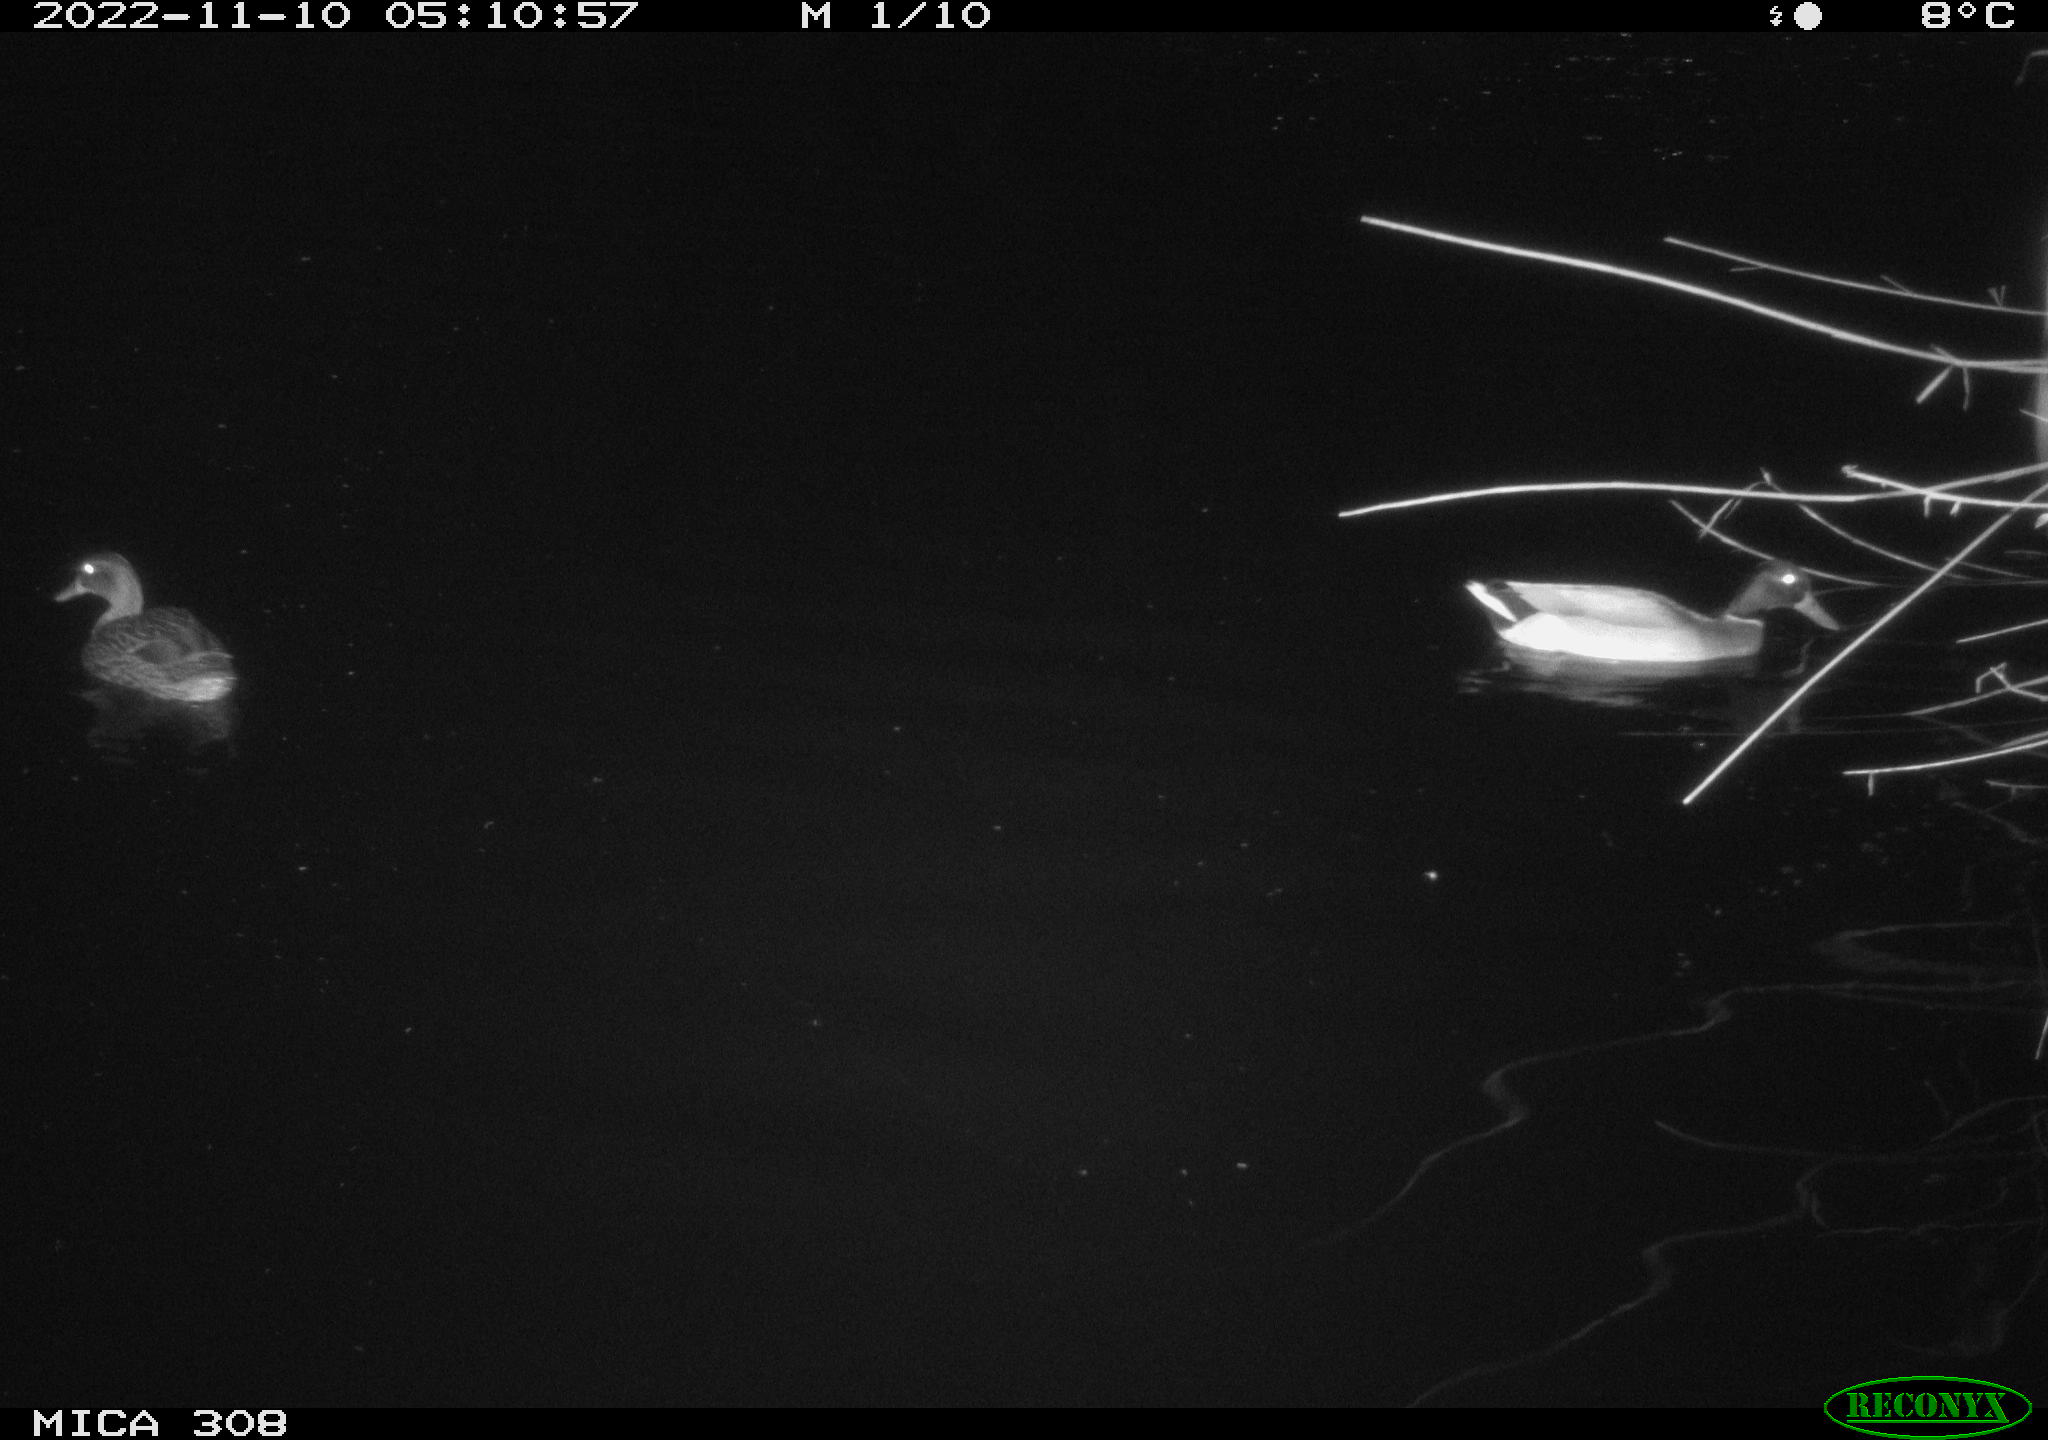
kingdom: Animalia
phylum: Chordata
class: Aves
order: Anseriformes
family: Anatidae
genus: Anas
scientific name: Anas
